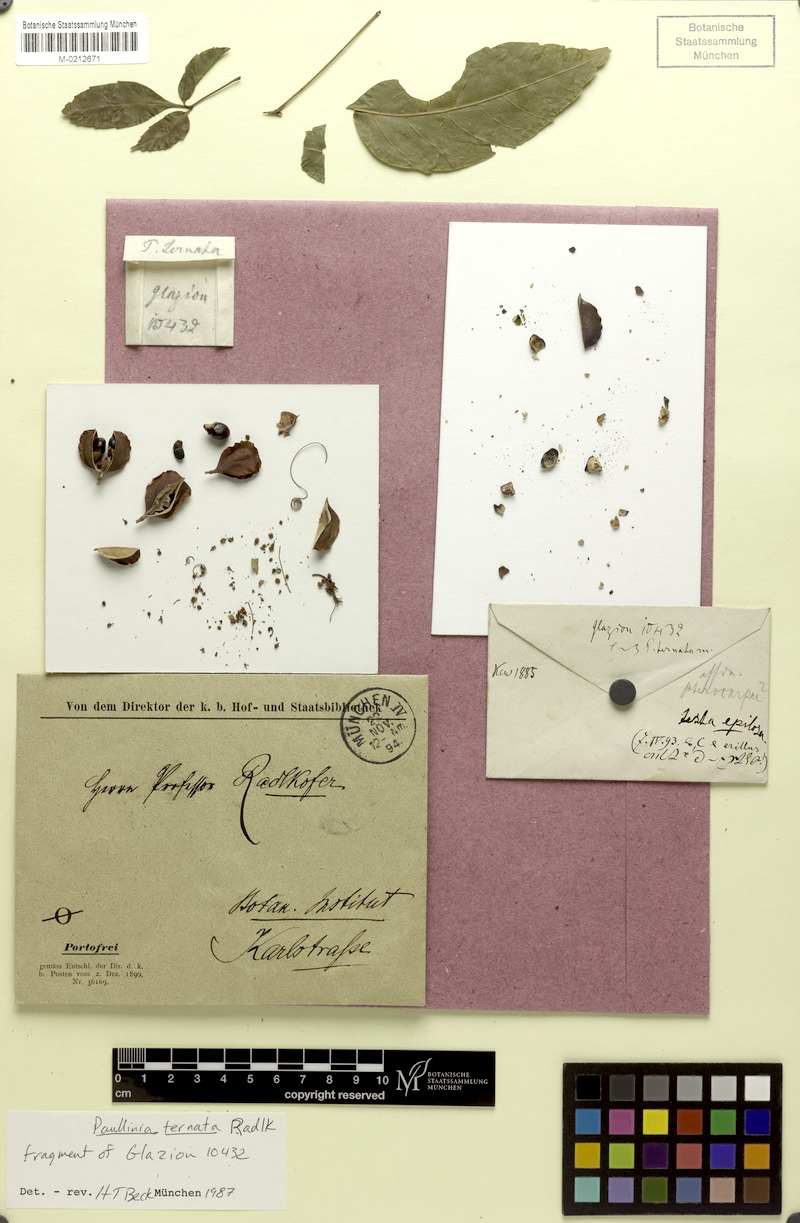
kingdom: Plantae
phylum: Tracheophyta
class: Magnoliopsida
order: Sapindales
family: Sapindaceae
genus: Paullinia
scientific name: Paullinia ternata
